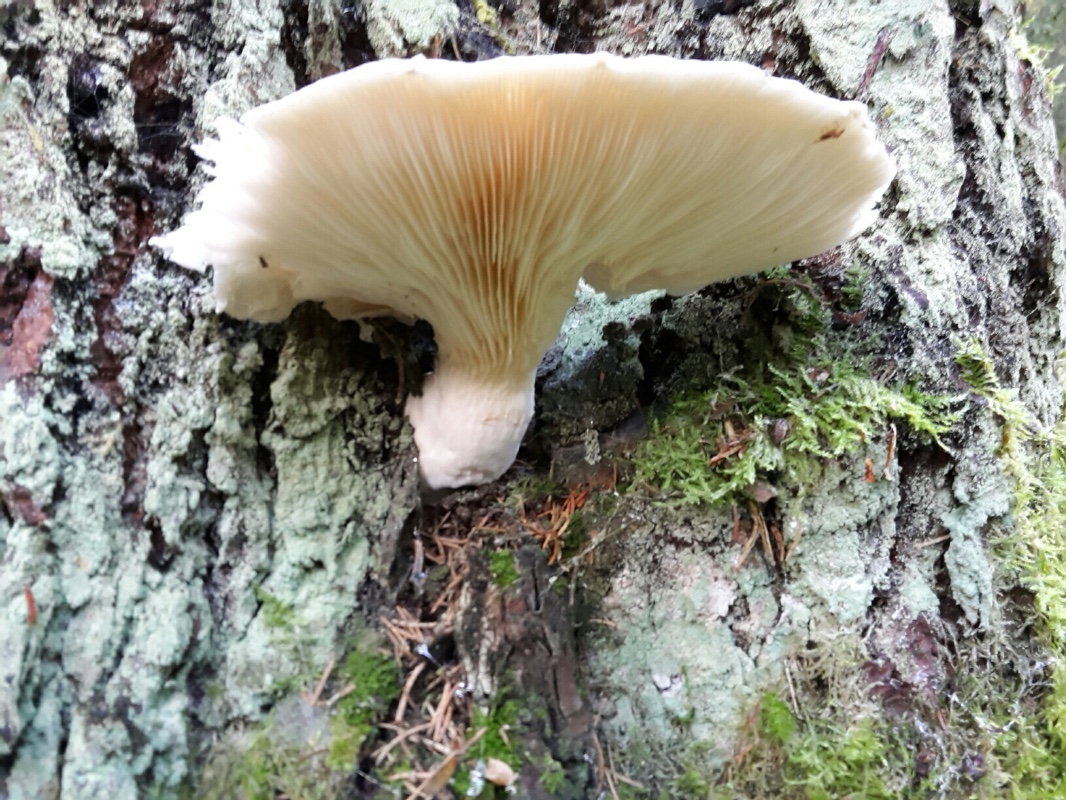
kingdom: Fungi
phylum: Basidiomycota
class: Agaricomycetes
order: Agaricales
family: Pleurotaceae
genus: Pleurotus
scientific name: Pleurotus dryinus
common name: korkagtig østershat
